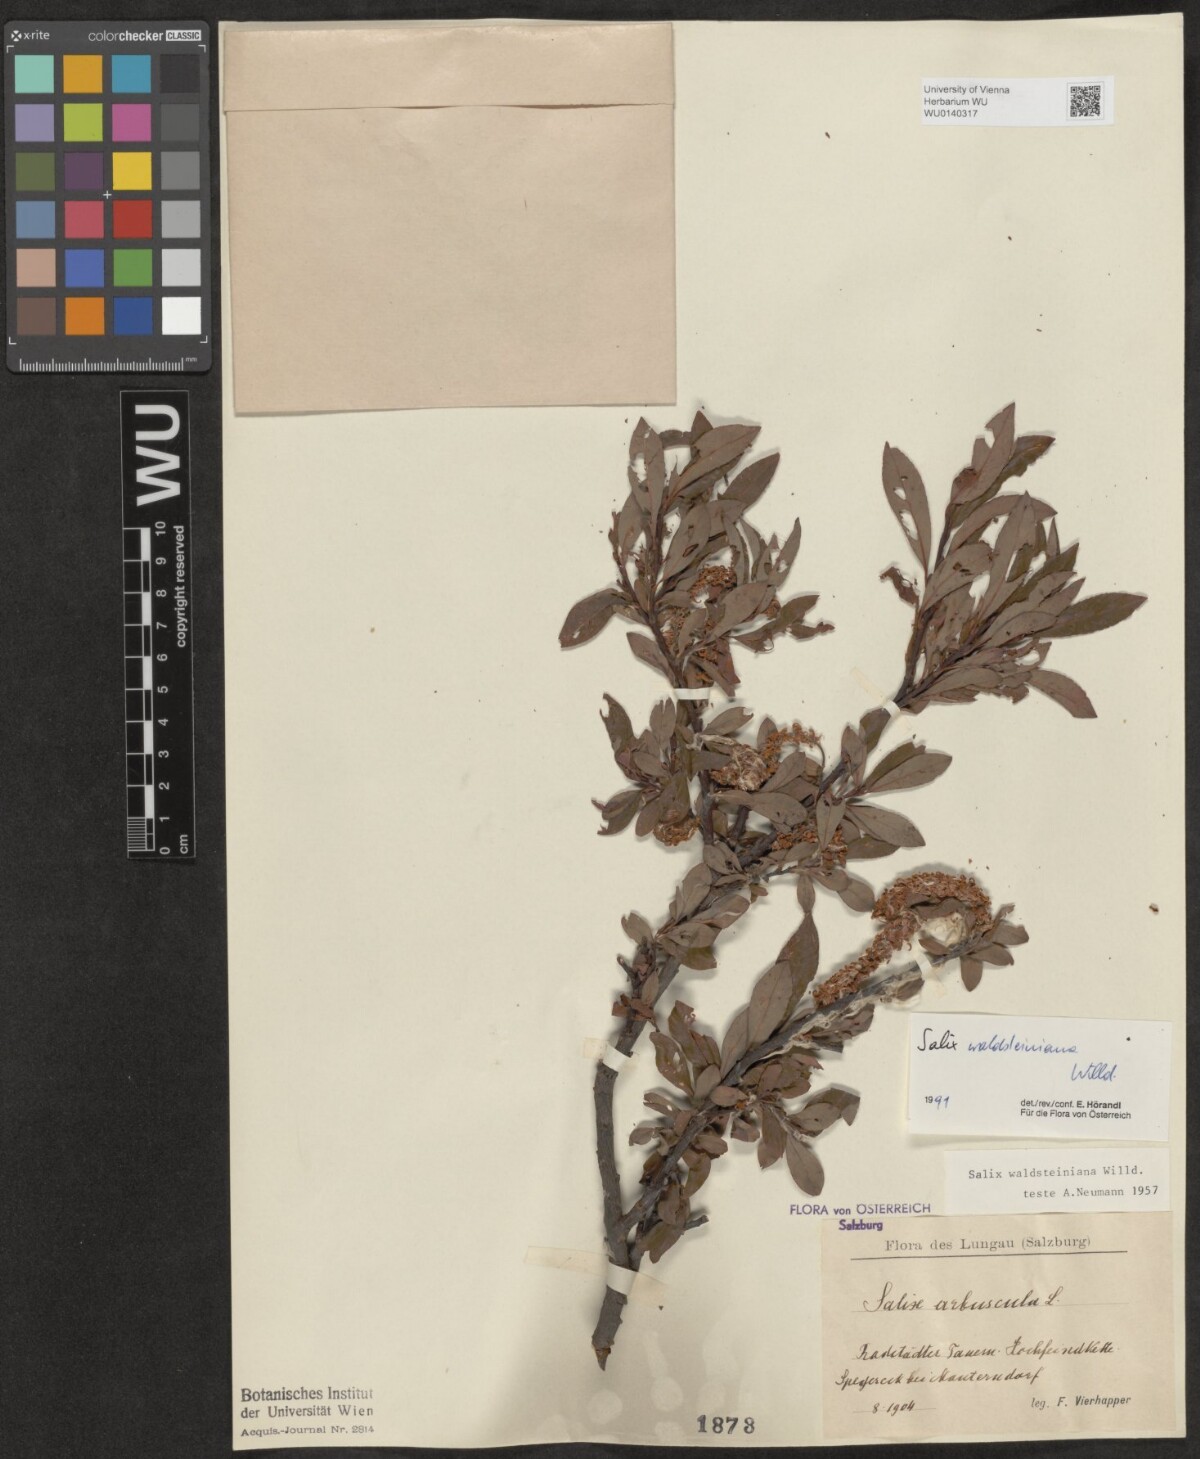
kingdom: Plantae
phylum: Tracheophyta
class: Magnoliopsida
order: Malpighiales
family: Salicaceae
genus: Salix
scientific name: Salix waldsteiniana
